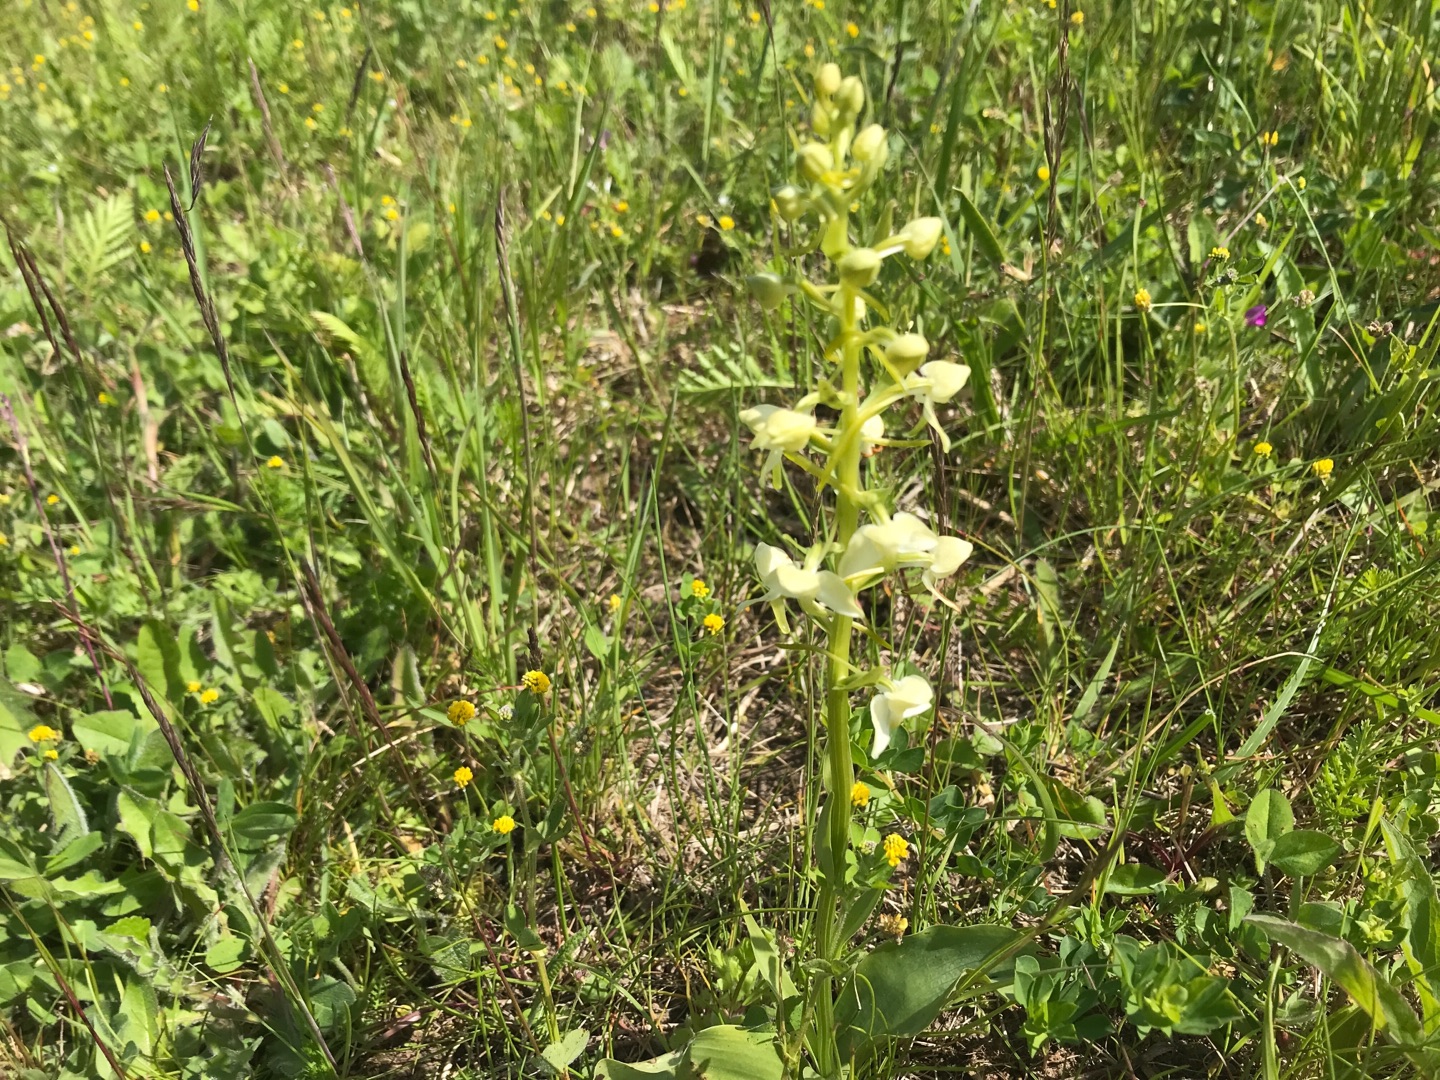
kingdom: Plantae
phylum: Tracheophyta
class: Liliopsida
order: Asparagales
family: Orchidaceae
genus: Platanthera
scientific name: Platanthera chlorantha
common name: Skov-gøgelilje
